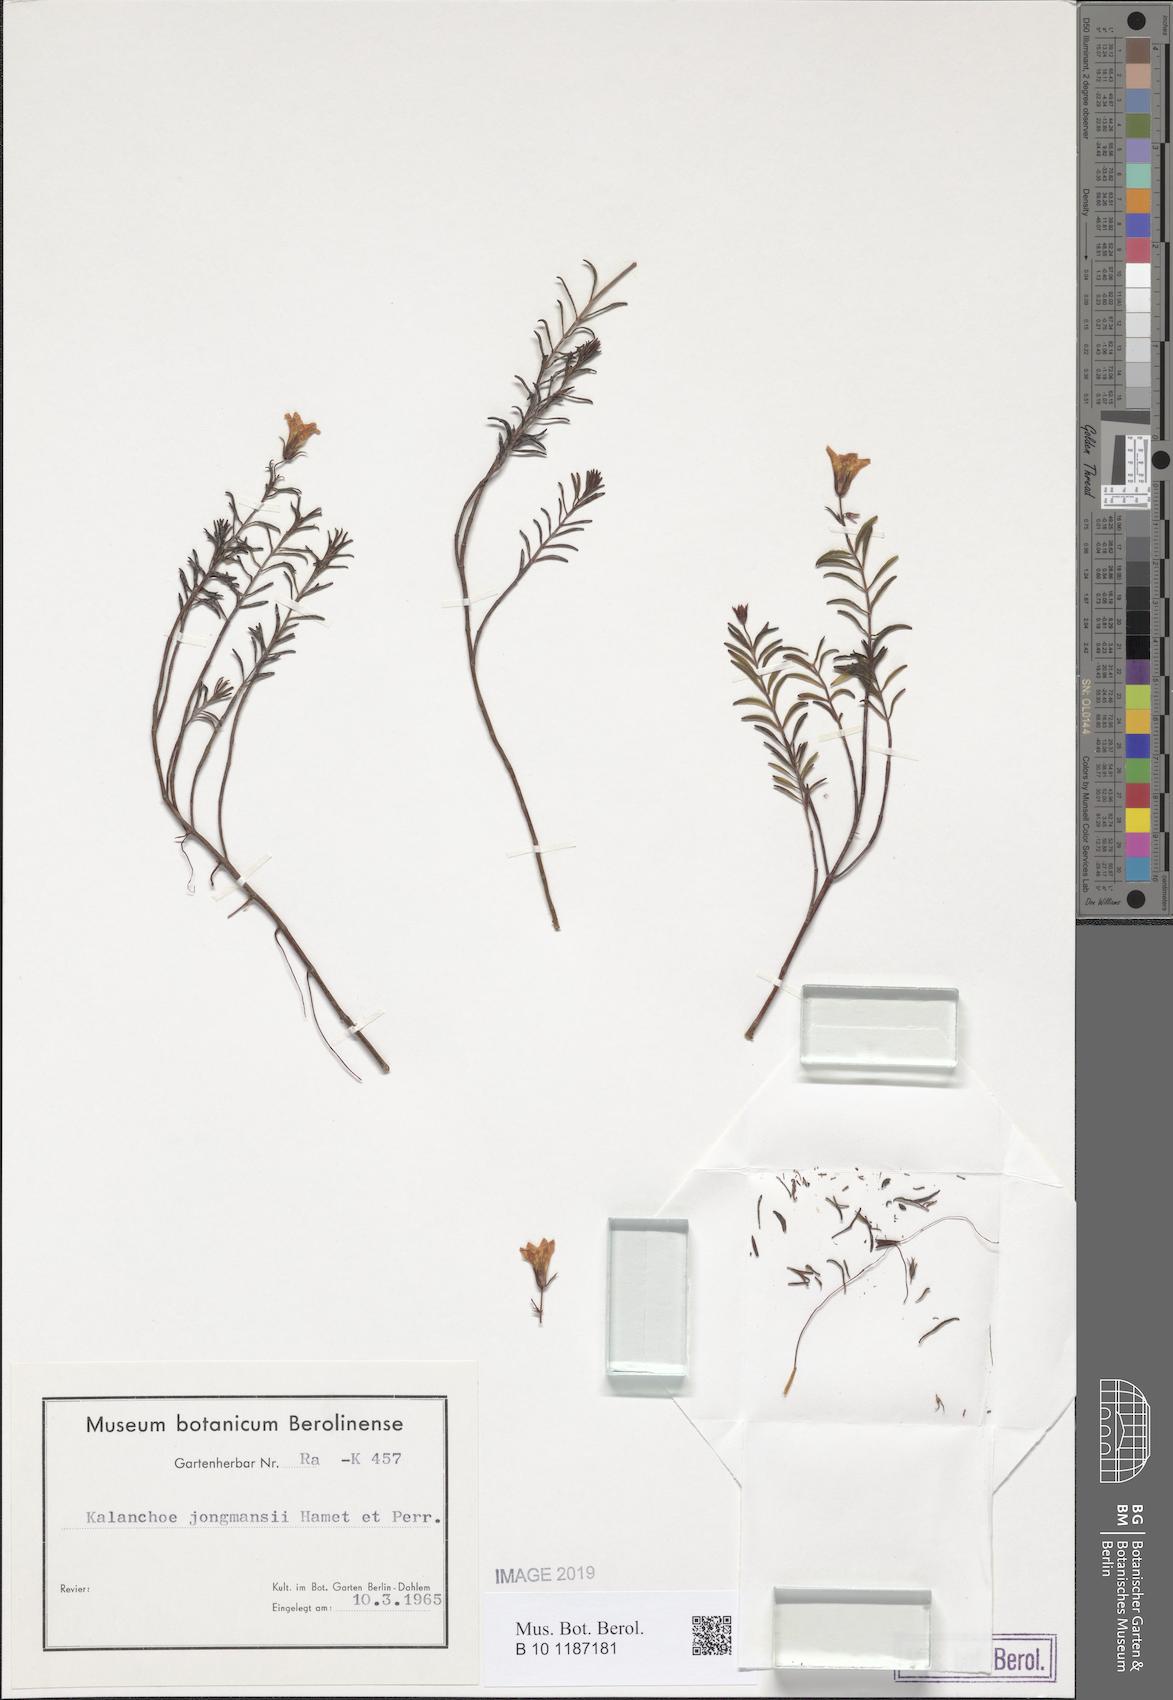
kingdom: Plantae
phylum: Tracheophyta
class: Magnoliopsida
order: Saxifragales
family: Crassulaceae
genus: Kalanchoe
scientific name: Kalanchoe jongmansii
